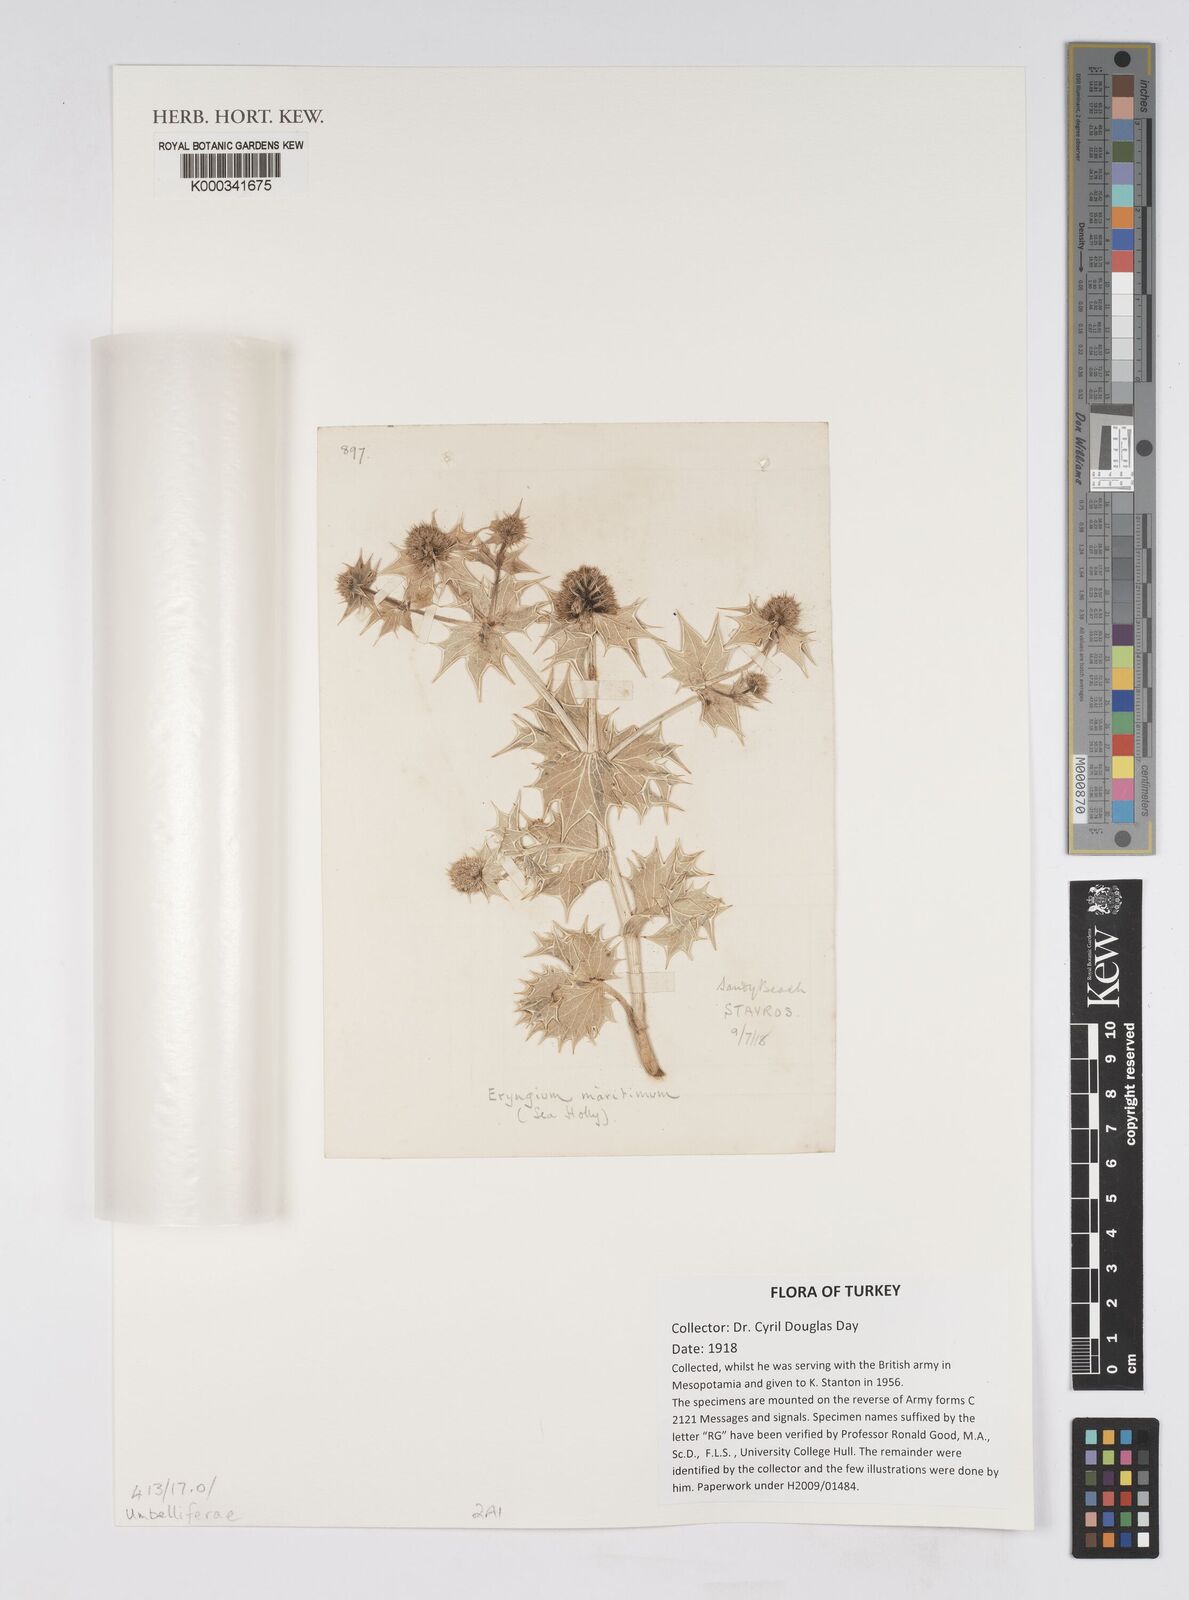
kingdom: Plantae
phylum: Tracheophyta
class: Magnoliopsida
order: Apiales
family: Apiaceae
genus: Eryngium
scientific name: Eryngium maritimum
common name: Sea-holly
